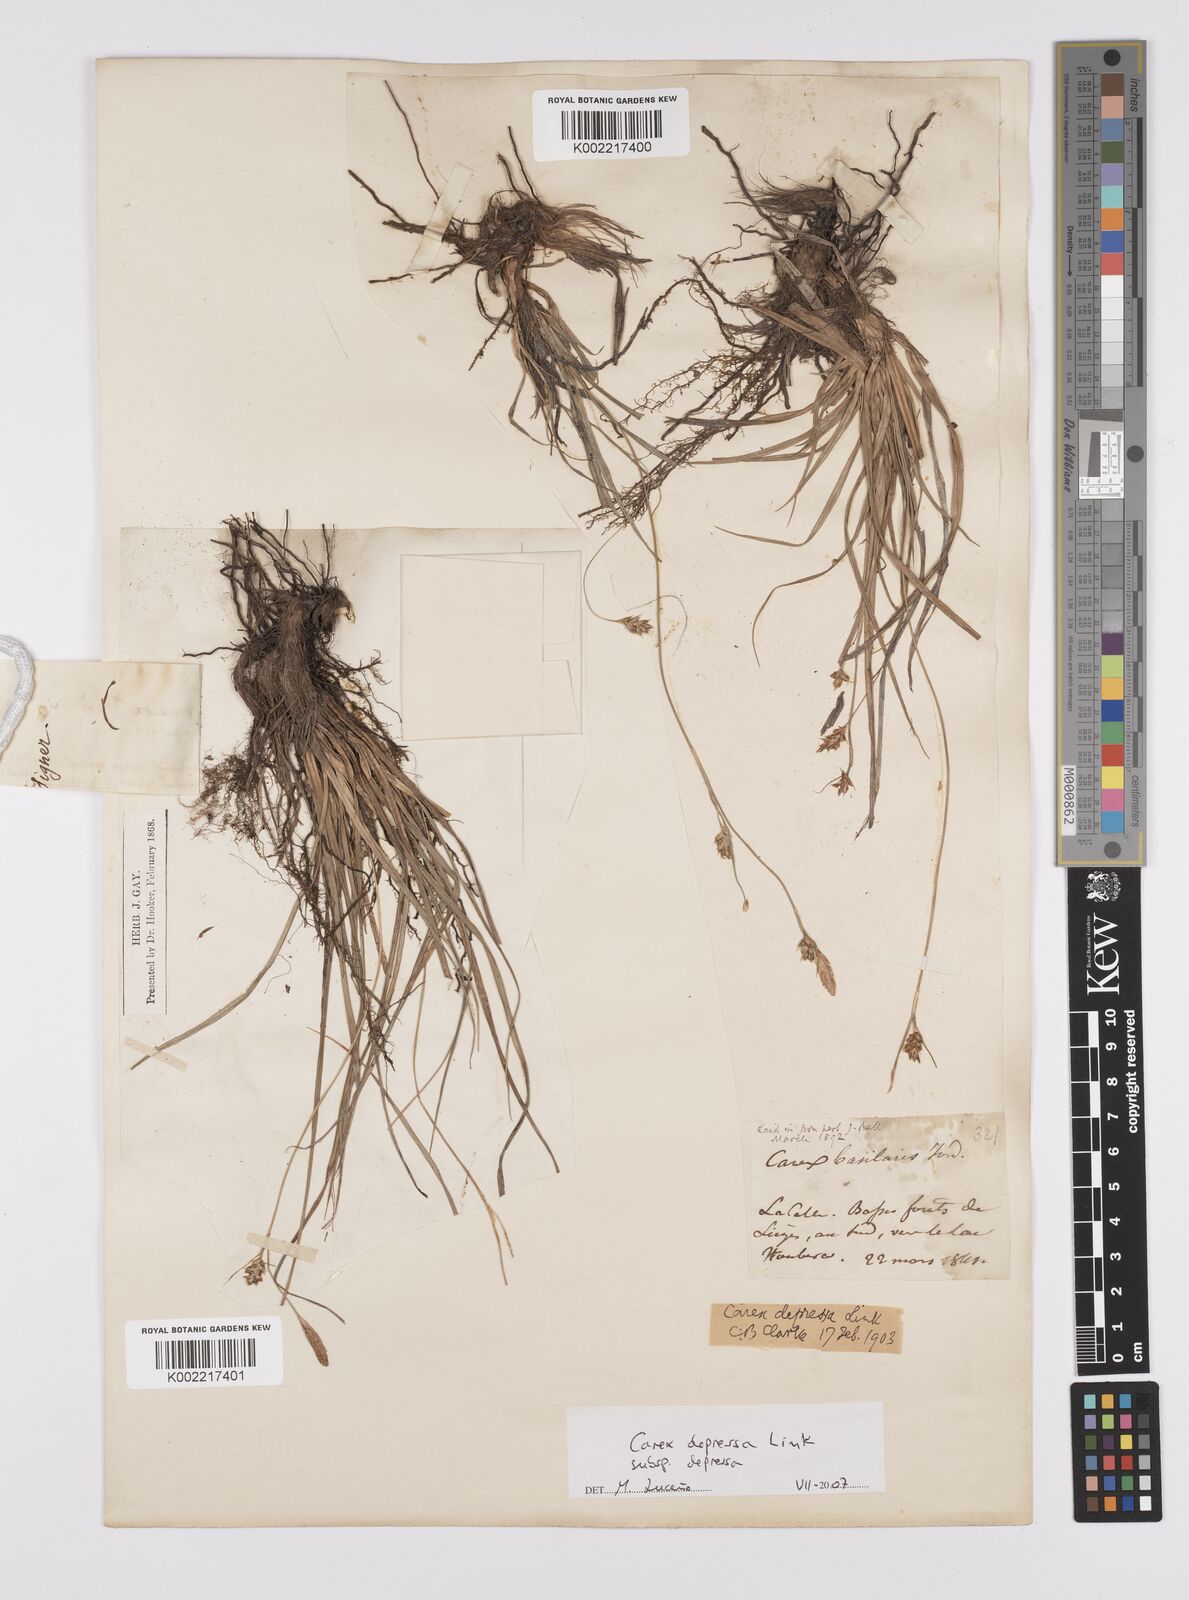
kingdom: Plantae
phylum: Tracheophyta
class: Liliopsida
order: Poales
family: Cyperaceae
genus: Carex
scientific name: Carex depressa
